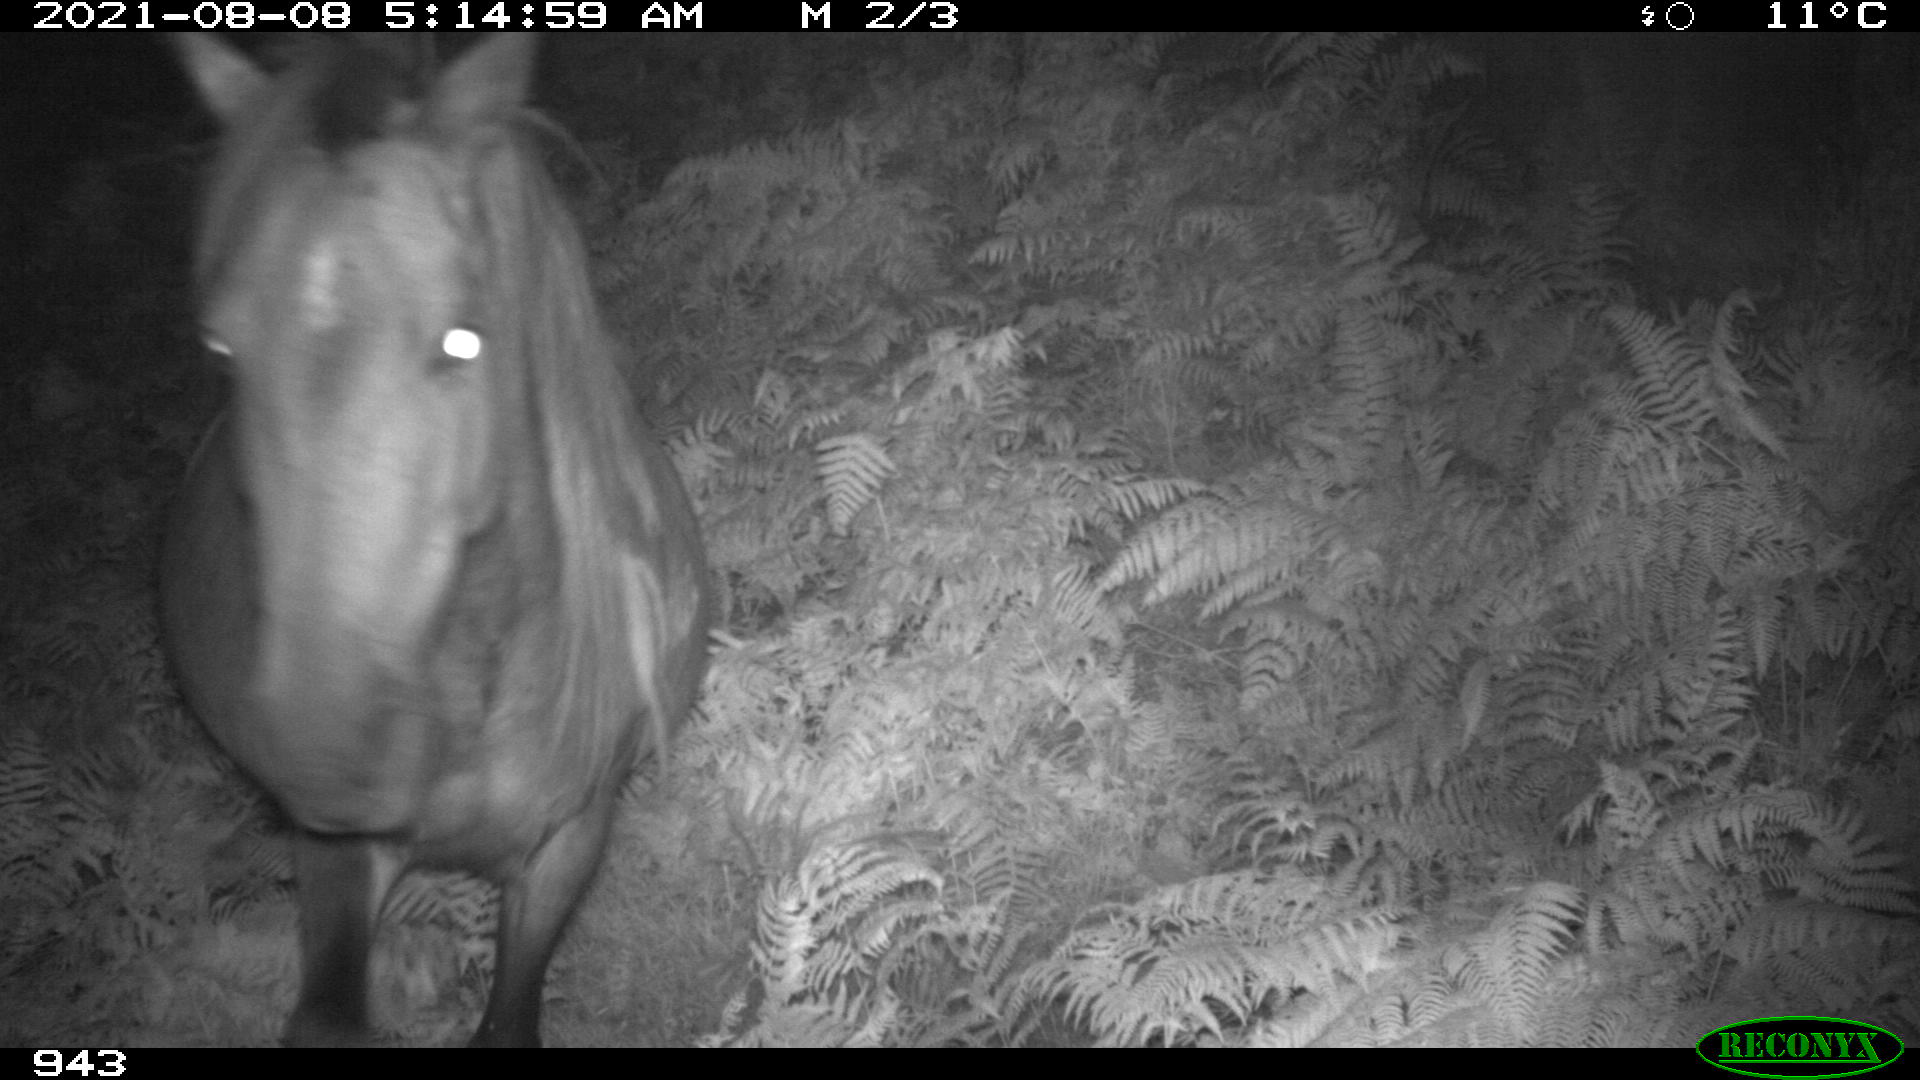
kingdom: Animalia
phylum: Chordata
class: Mammalia
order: Perissodactyla
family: Equidae
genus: Equus
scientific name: Equus caballus
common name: Horse
